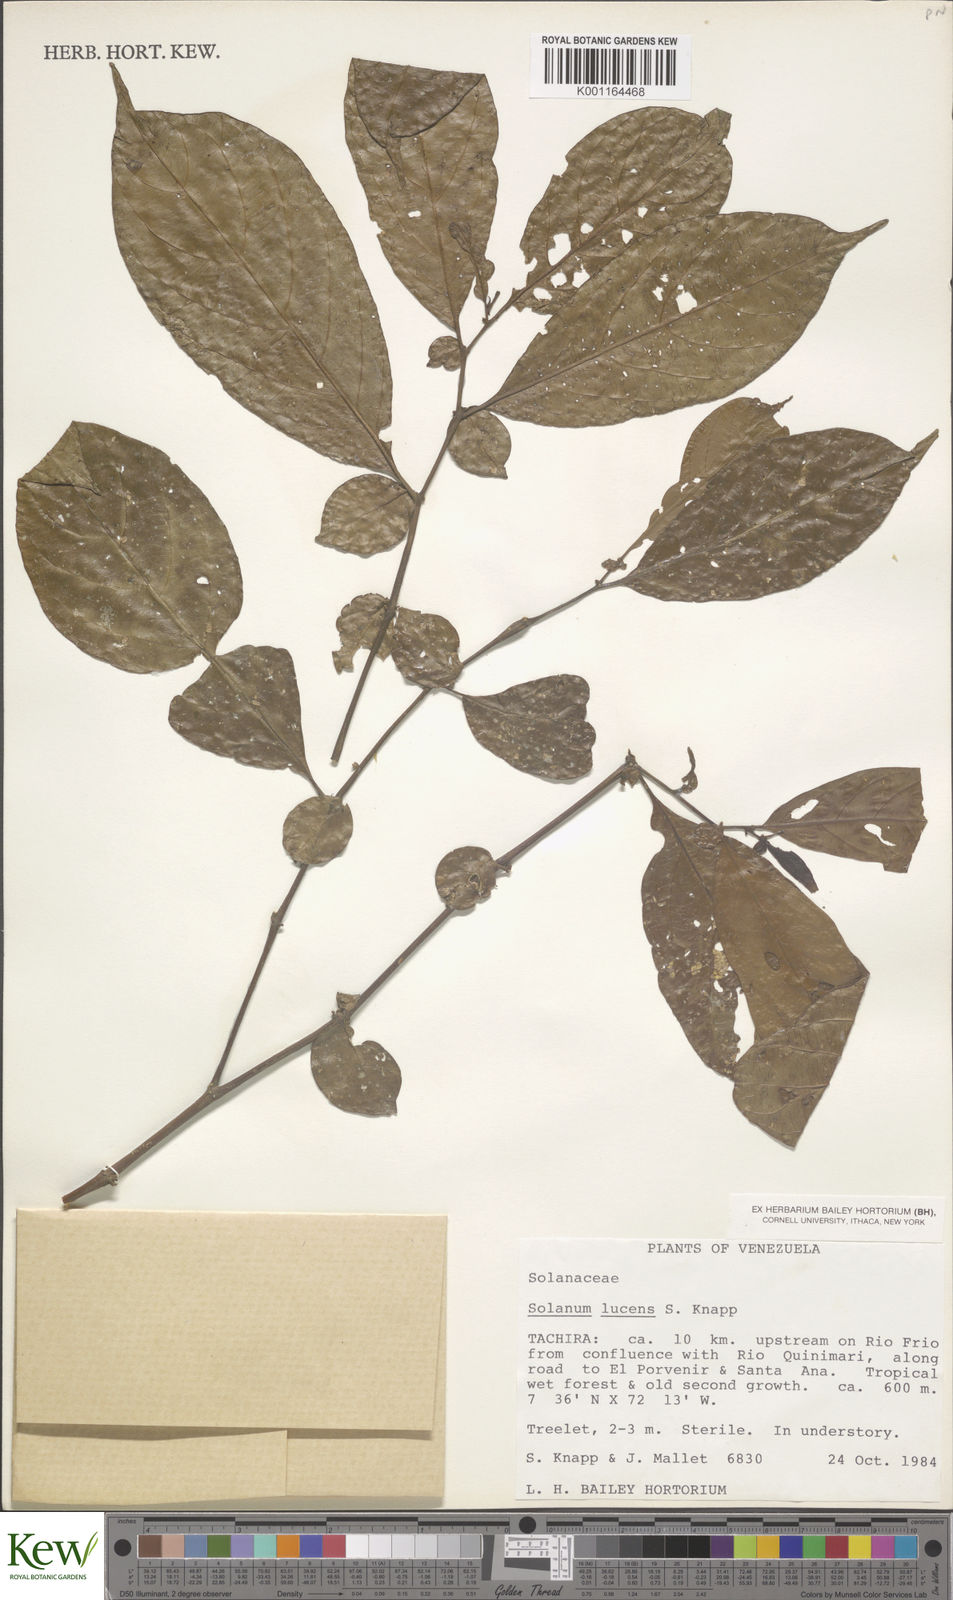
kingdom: Plantae
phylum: Tracheophyta
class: Magnoliopsida
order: Solanales
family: Solanaceae
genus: Solanum
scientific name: Solanum lucens
